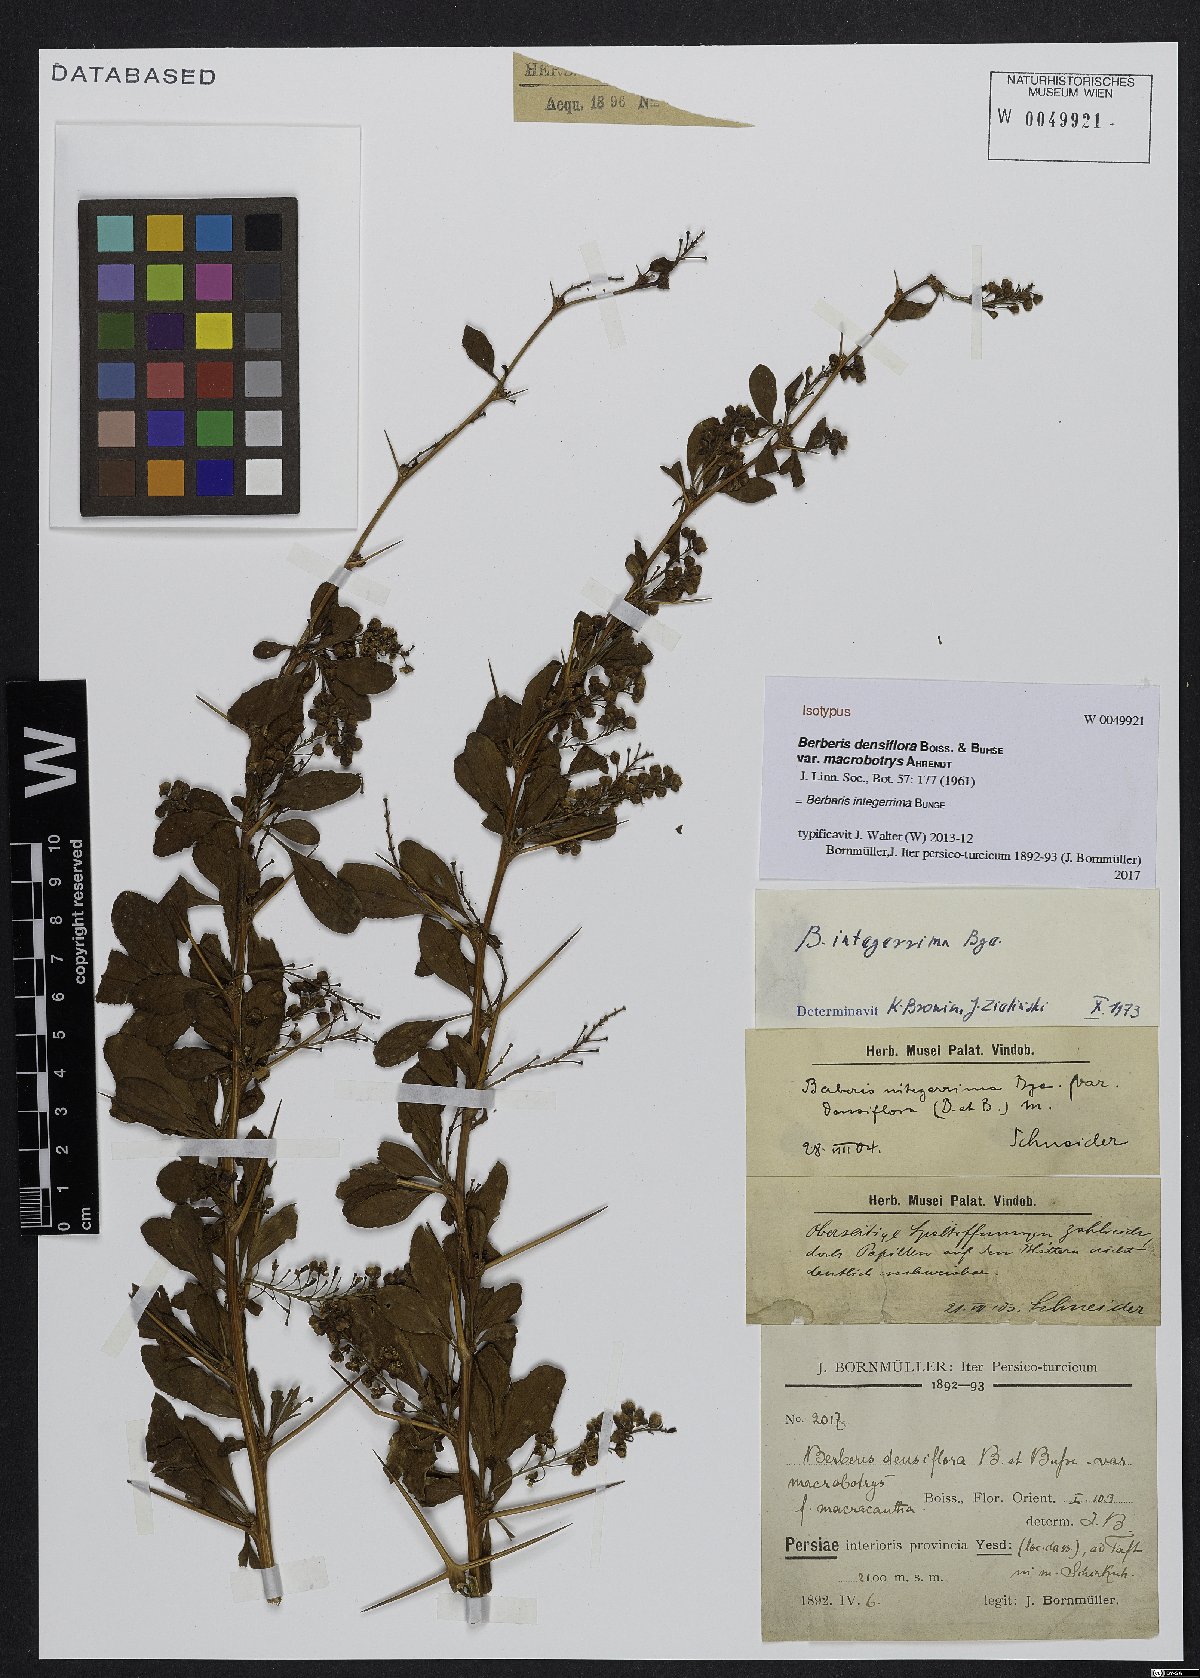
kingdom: Plantae
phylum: Tracheophyta
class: Magnoliopsida
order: Ranunculales
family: Berberidaceae
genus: Berberis
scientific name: Berberis integerrima
